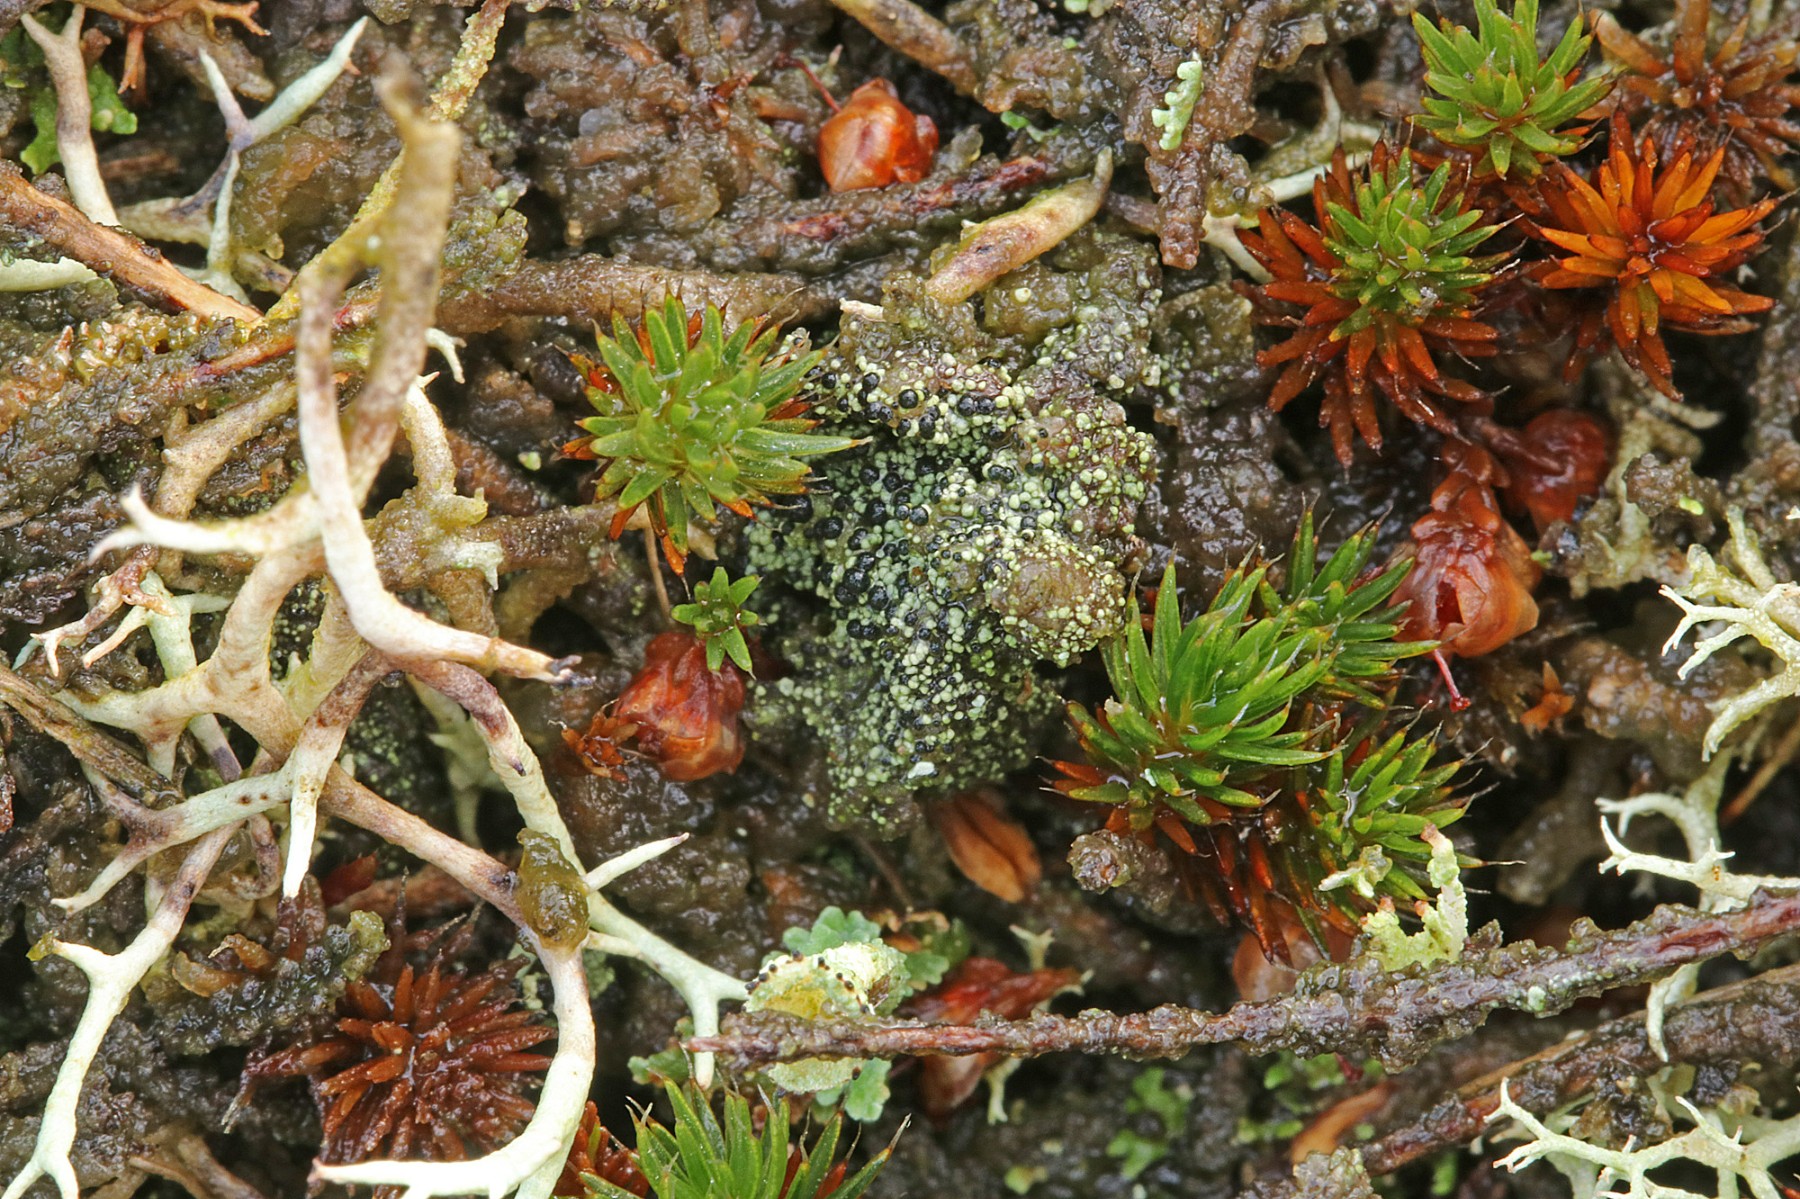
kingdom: Fungi
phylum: Ascomycota
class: Lecanoromycetes
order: Lecanorales
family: Byssolomataceae
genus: Micarea
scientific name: Micarea lignaria
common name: tørve-knaplav
